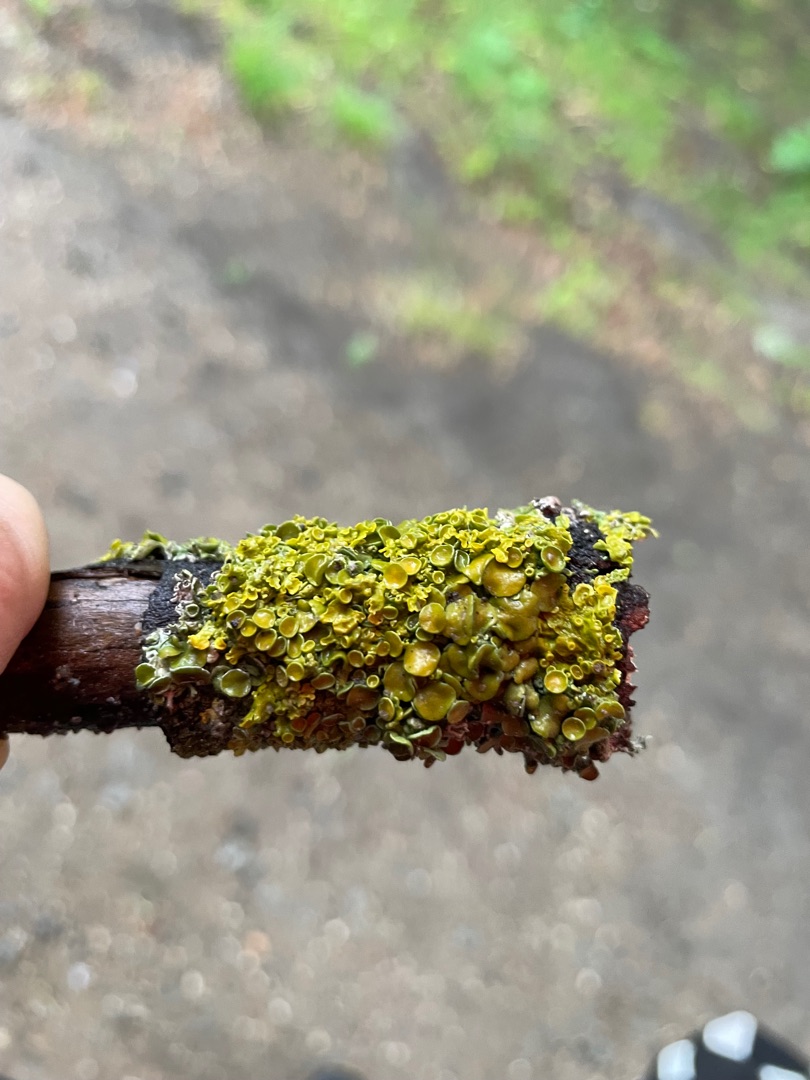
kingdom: Fungi
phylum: Ascomycota
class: Lecanoromycetes
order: Teloschistales
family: Teloschistaceae
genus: Xanthoria
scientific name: Xanthoria parietina
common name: Almindelig væggelav
